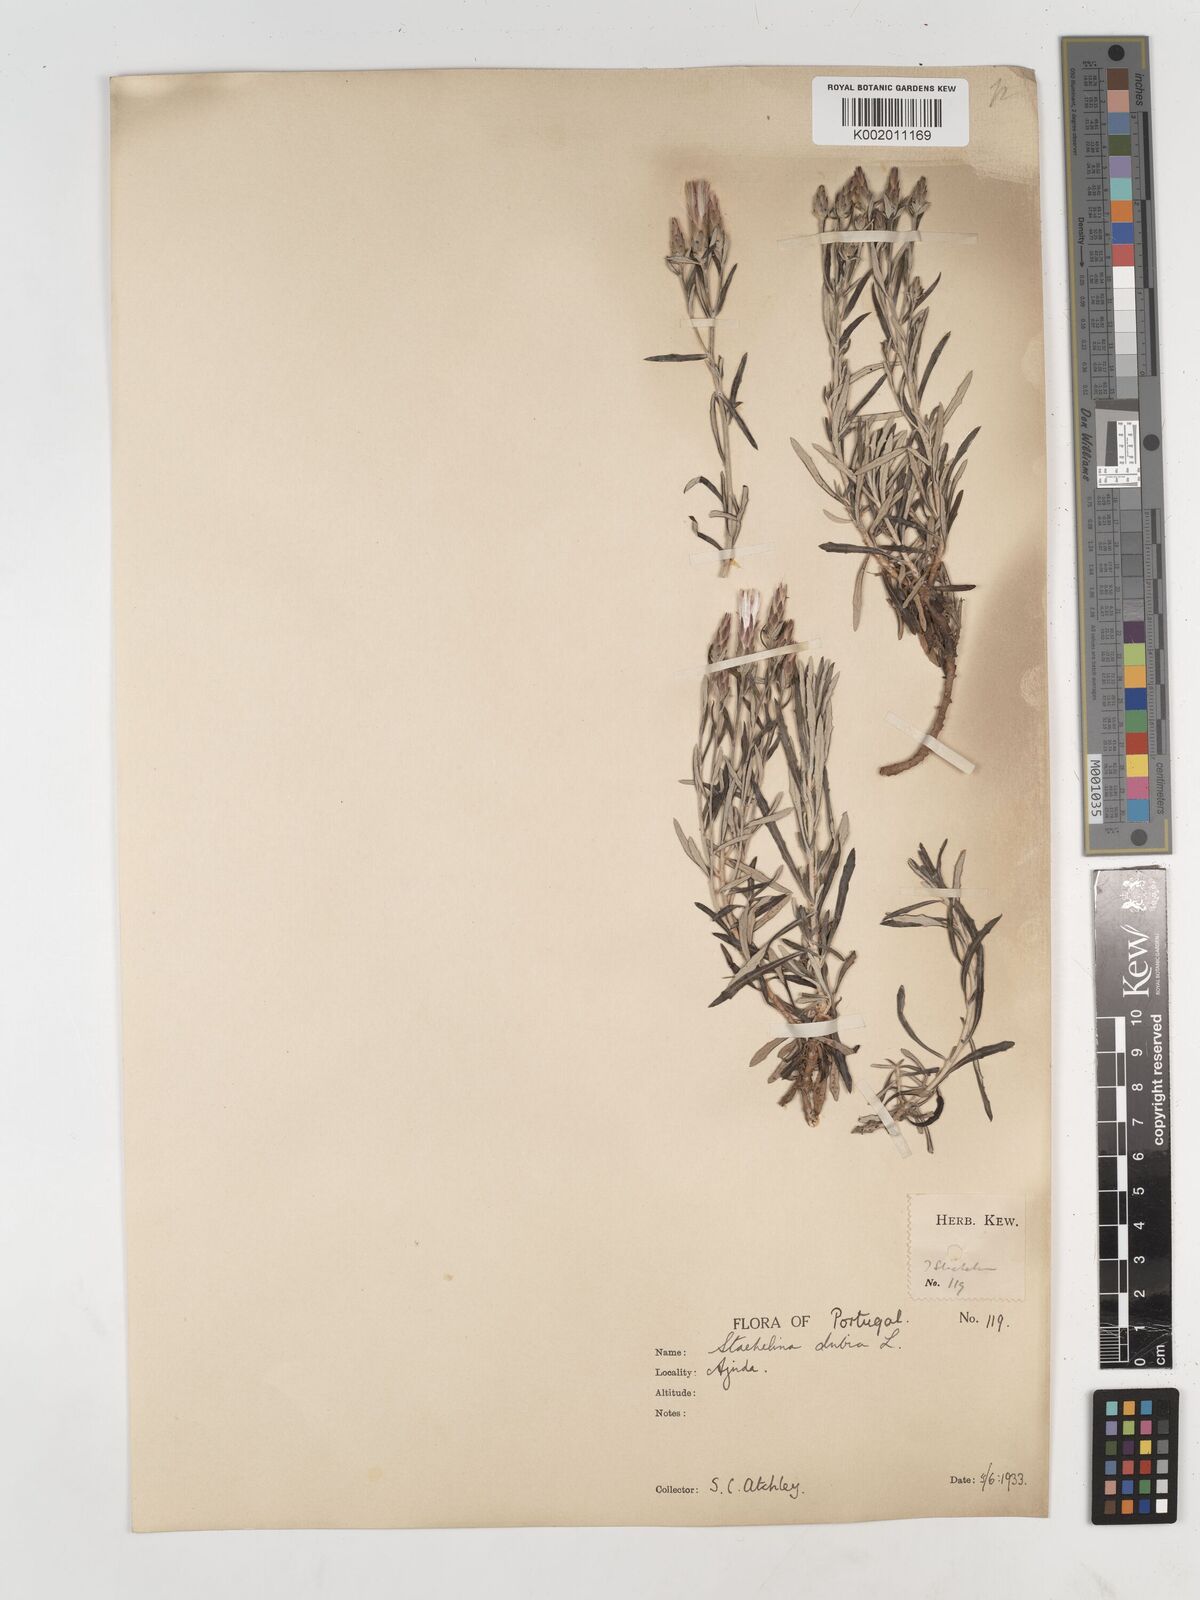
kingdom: Plantae
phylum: Tracheophyta
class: Magnoliopsida
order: Asterales
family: Asteraceae
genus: Staehelina
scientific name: Staehelina dubia
